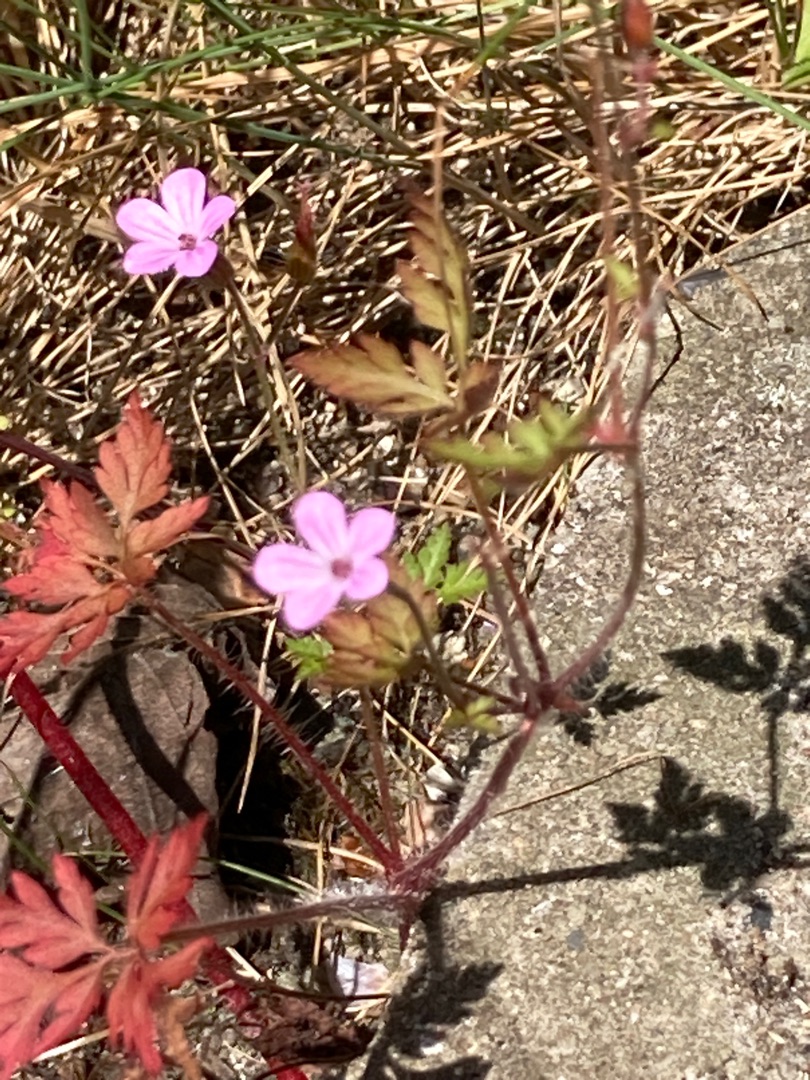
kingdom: Plantae
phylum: Tracheophyta
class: Magnoliopsida
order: Geraniales
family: Geraniaceae
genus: Geranium
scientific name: Geranium robertianum
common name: Stinkende storkenæb
